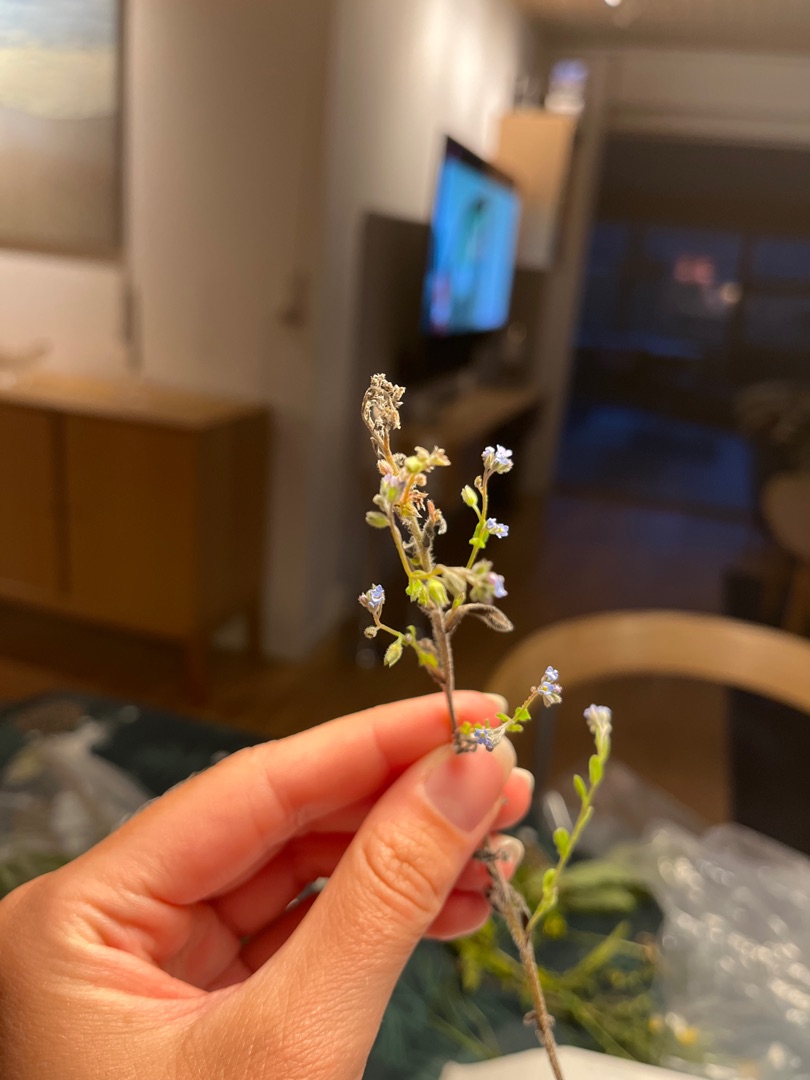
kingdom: Plantae
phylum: Tracheophyta
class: Magnoliopsida
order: Boraginales
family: Boraginaceae
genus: Myosotis
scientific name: Myosotis arvensis
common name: Mark-forglemmigej
